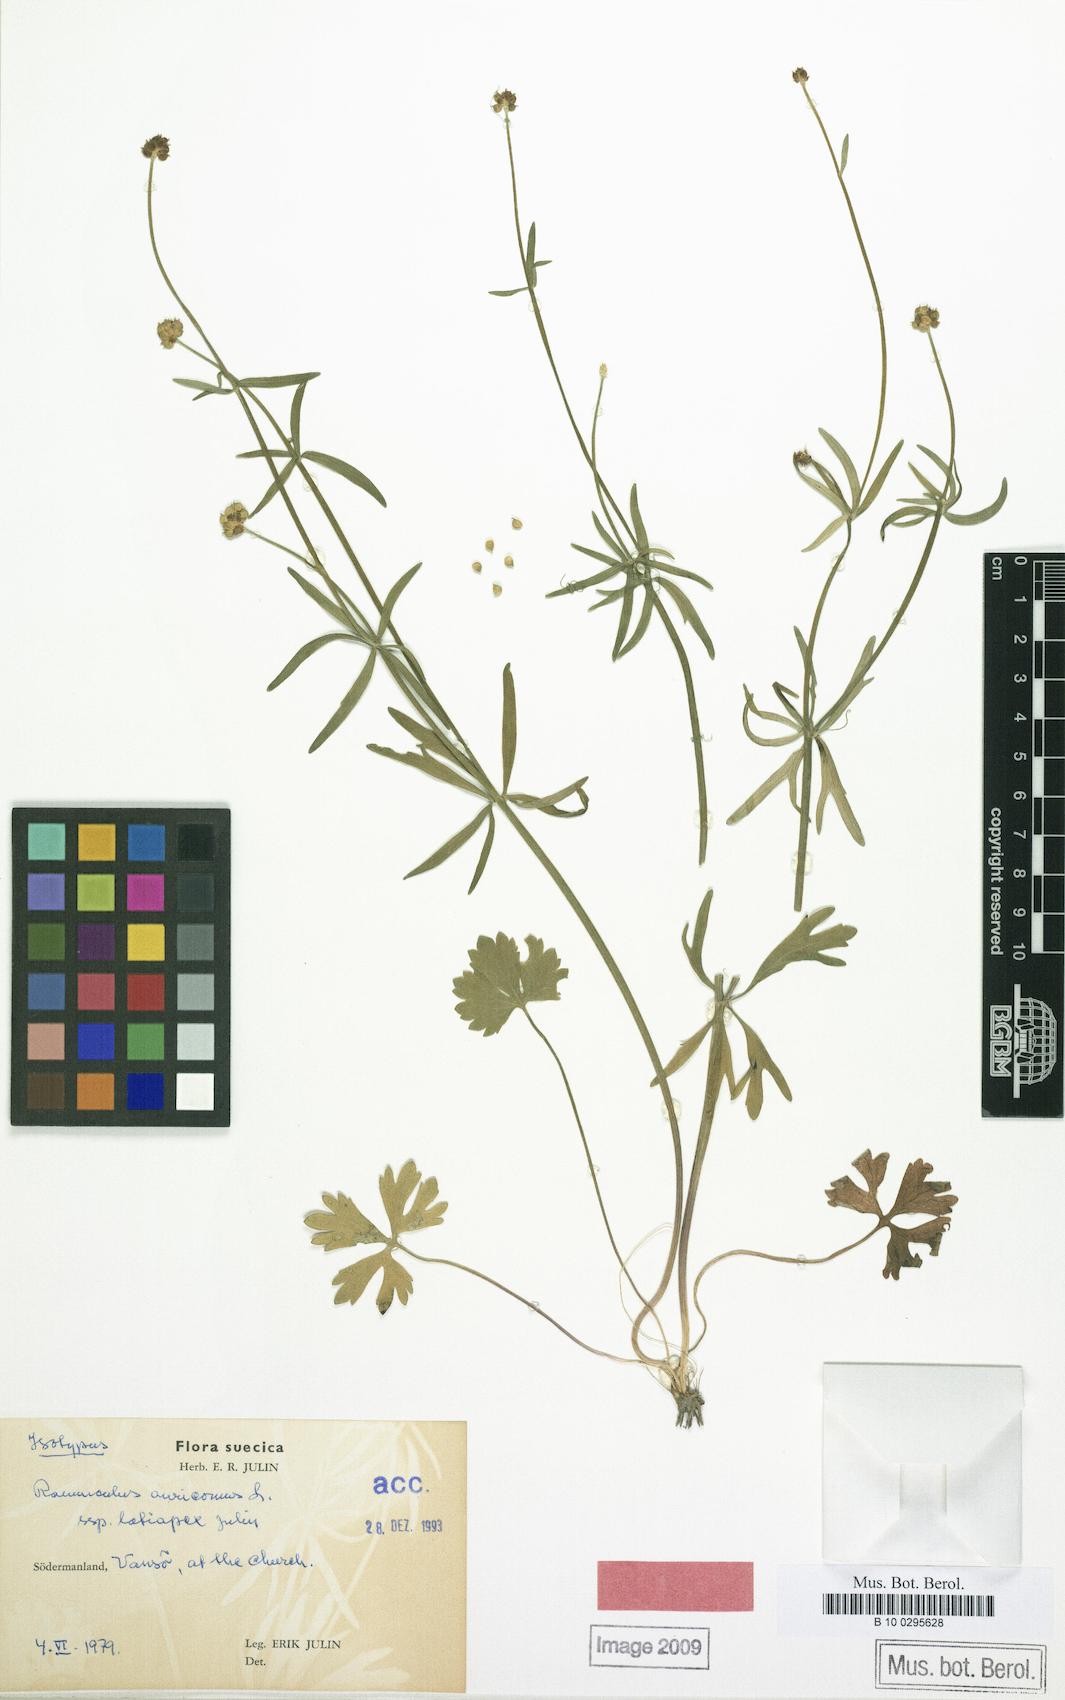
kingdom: Plantae
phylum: Tracheophyta
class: Magnoliopsida
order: Ranunculales
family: Ranunculaceae
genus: Ranunculus
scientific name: Ranunculus latiapex
